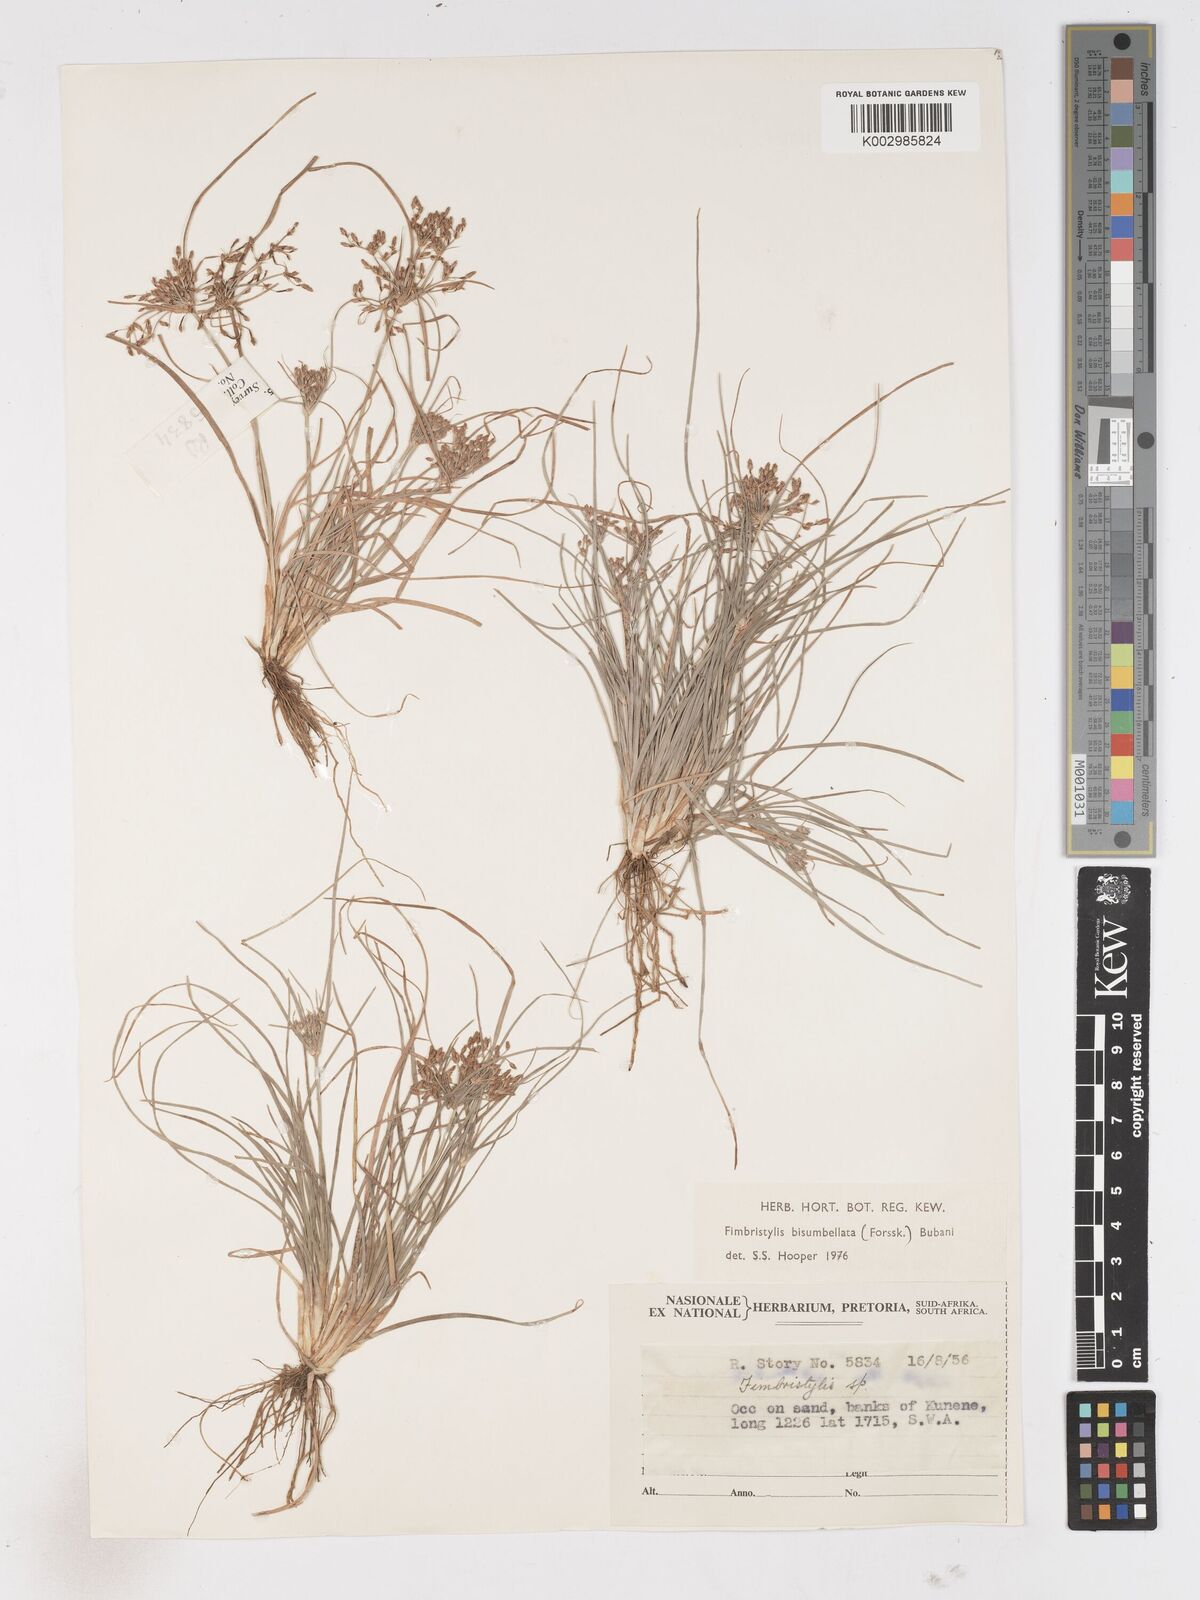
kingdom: Plantae
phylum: Tracheophyta
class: Liliopsida
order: Poales
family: Cyperaceae
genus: Fimbristylis
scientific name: Fimbristylis bisumbellata
